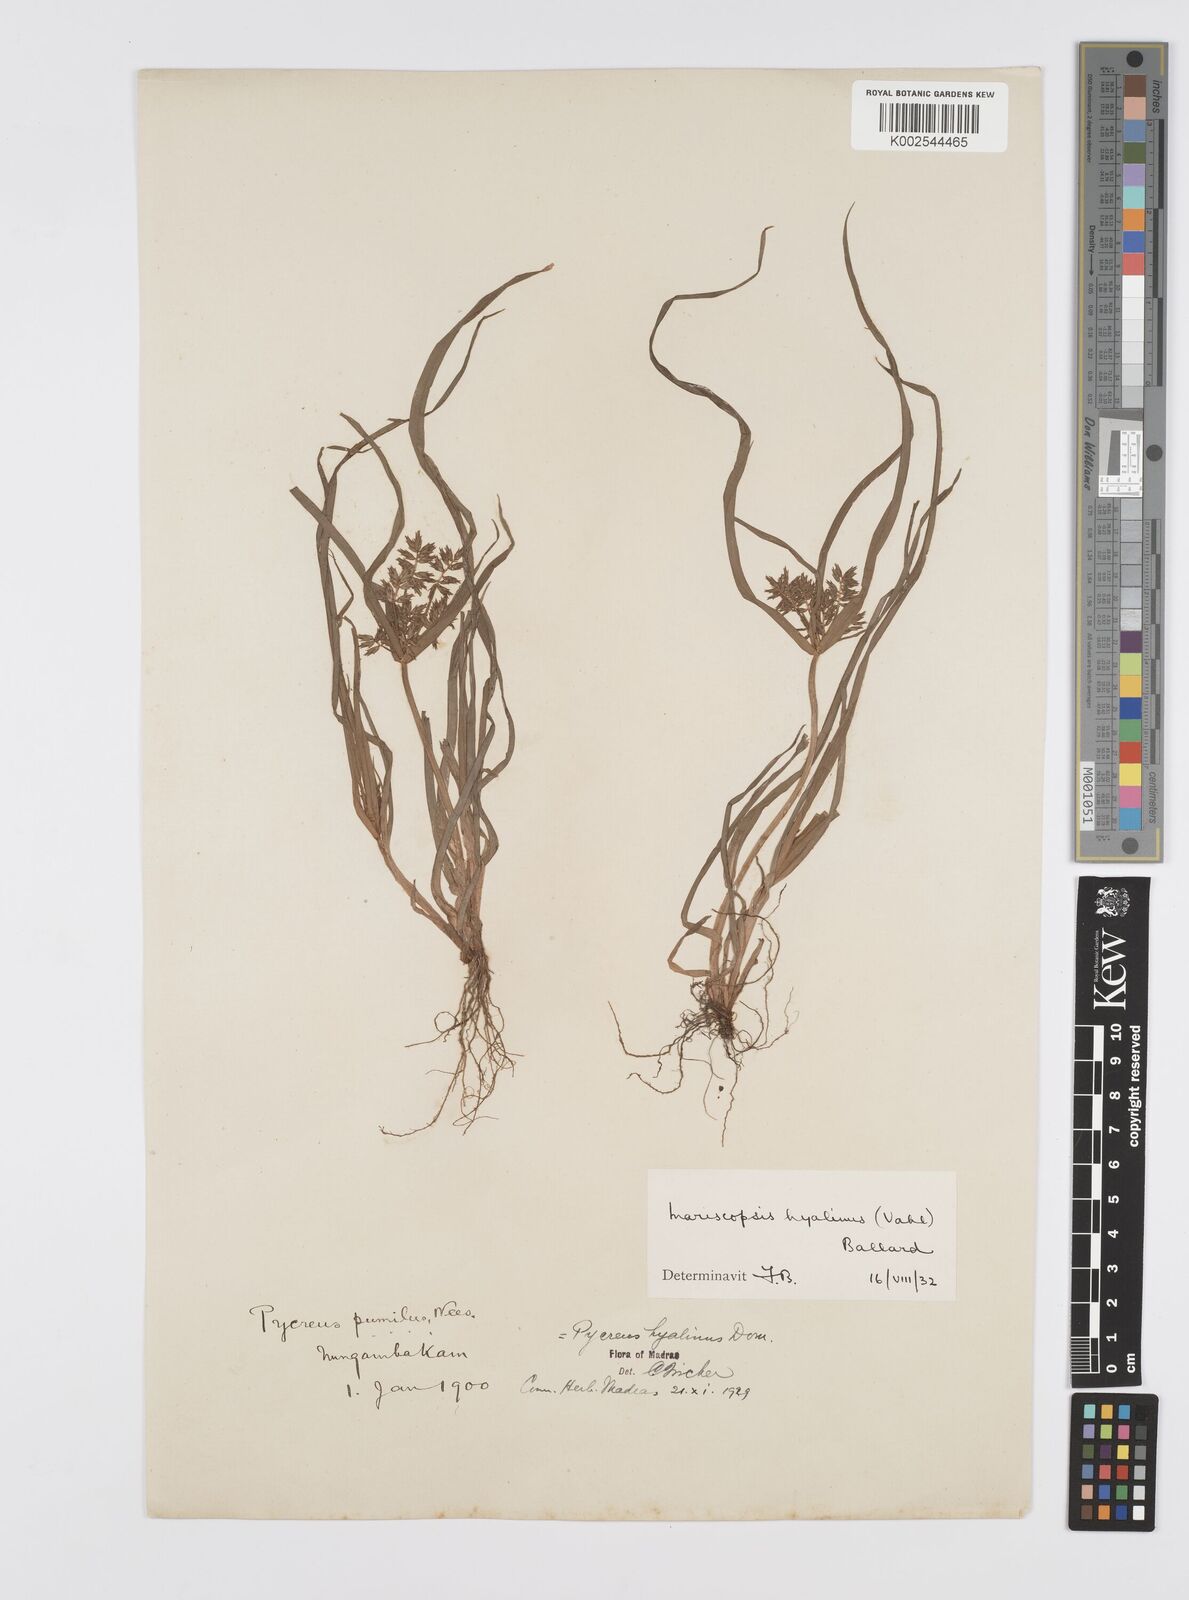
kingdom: Plantae
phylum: Tracheophyta
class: Liliopsida
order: Poales
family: Cyperaceae
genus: Cyperus
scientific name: Cyperus hyalinus
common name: Queensland sedge
